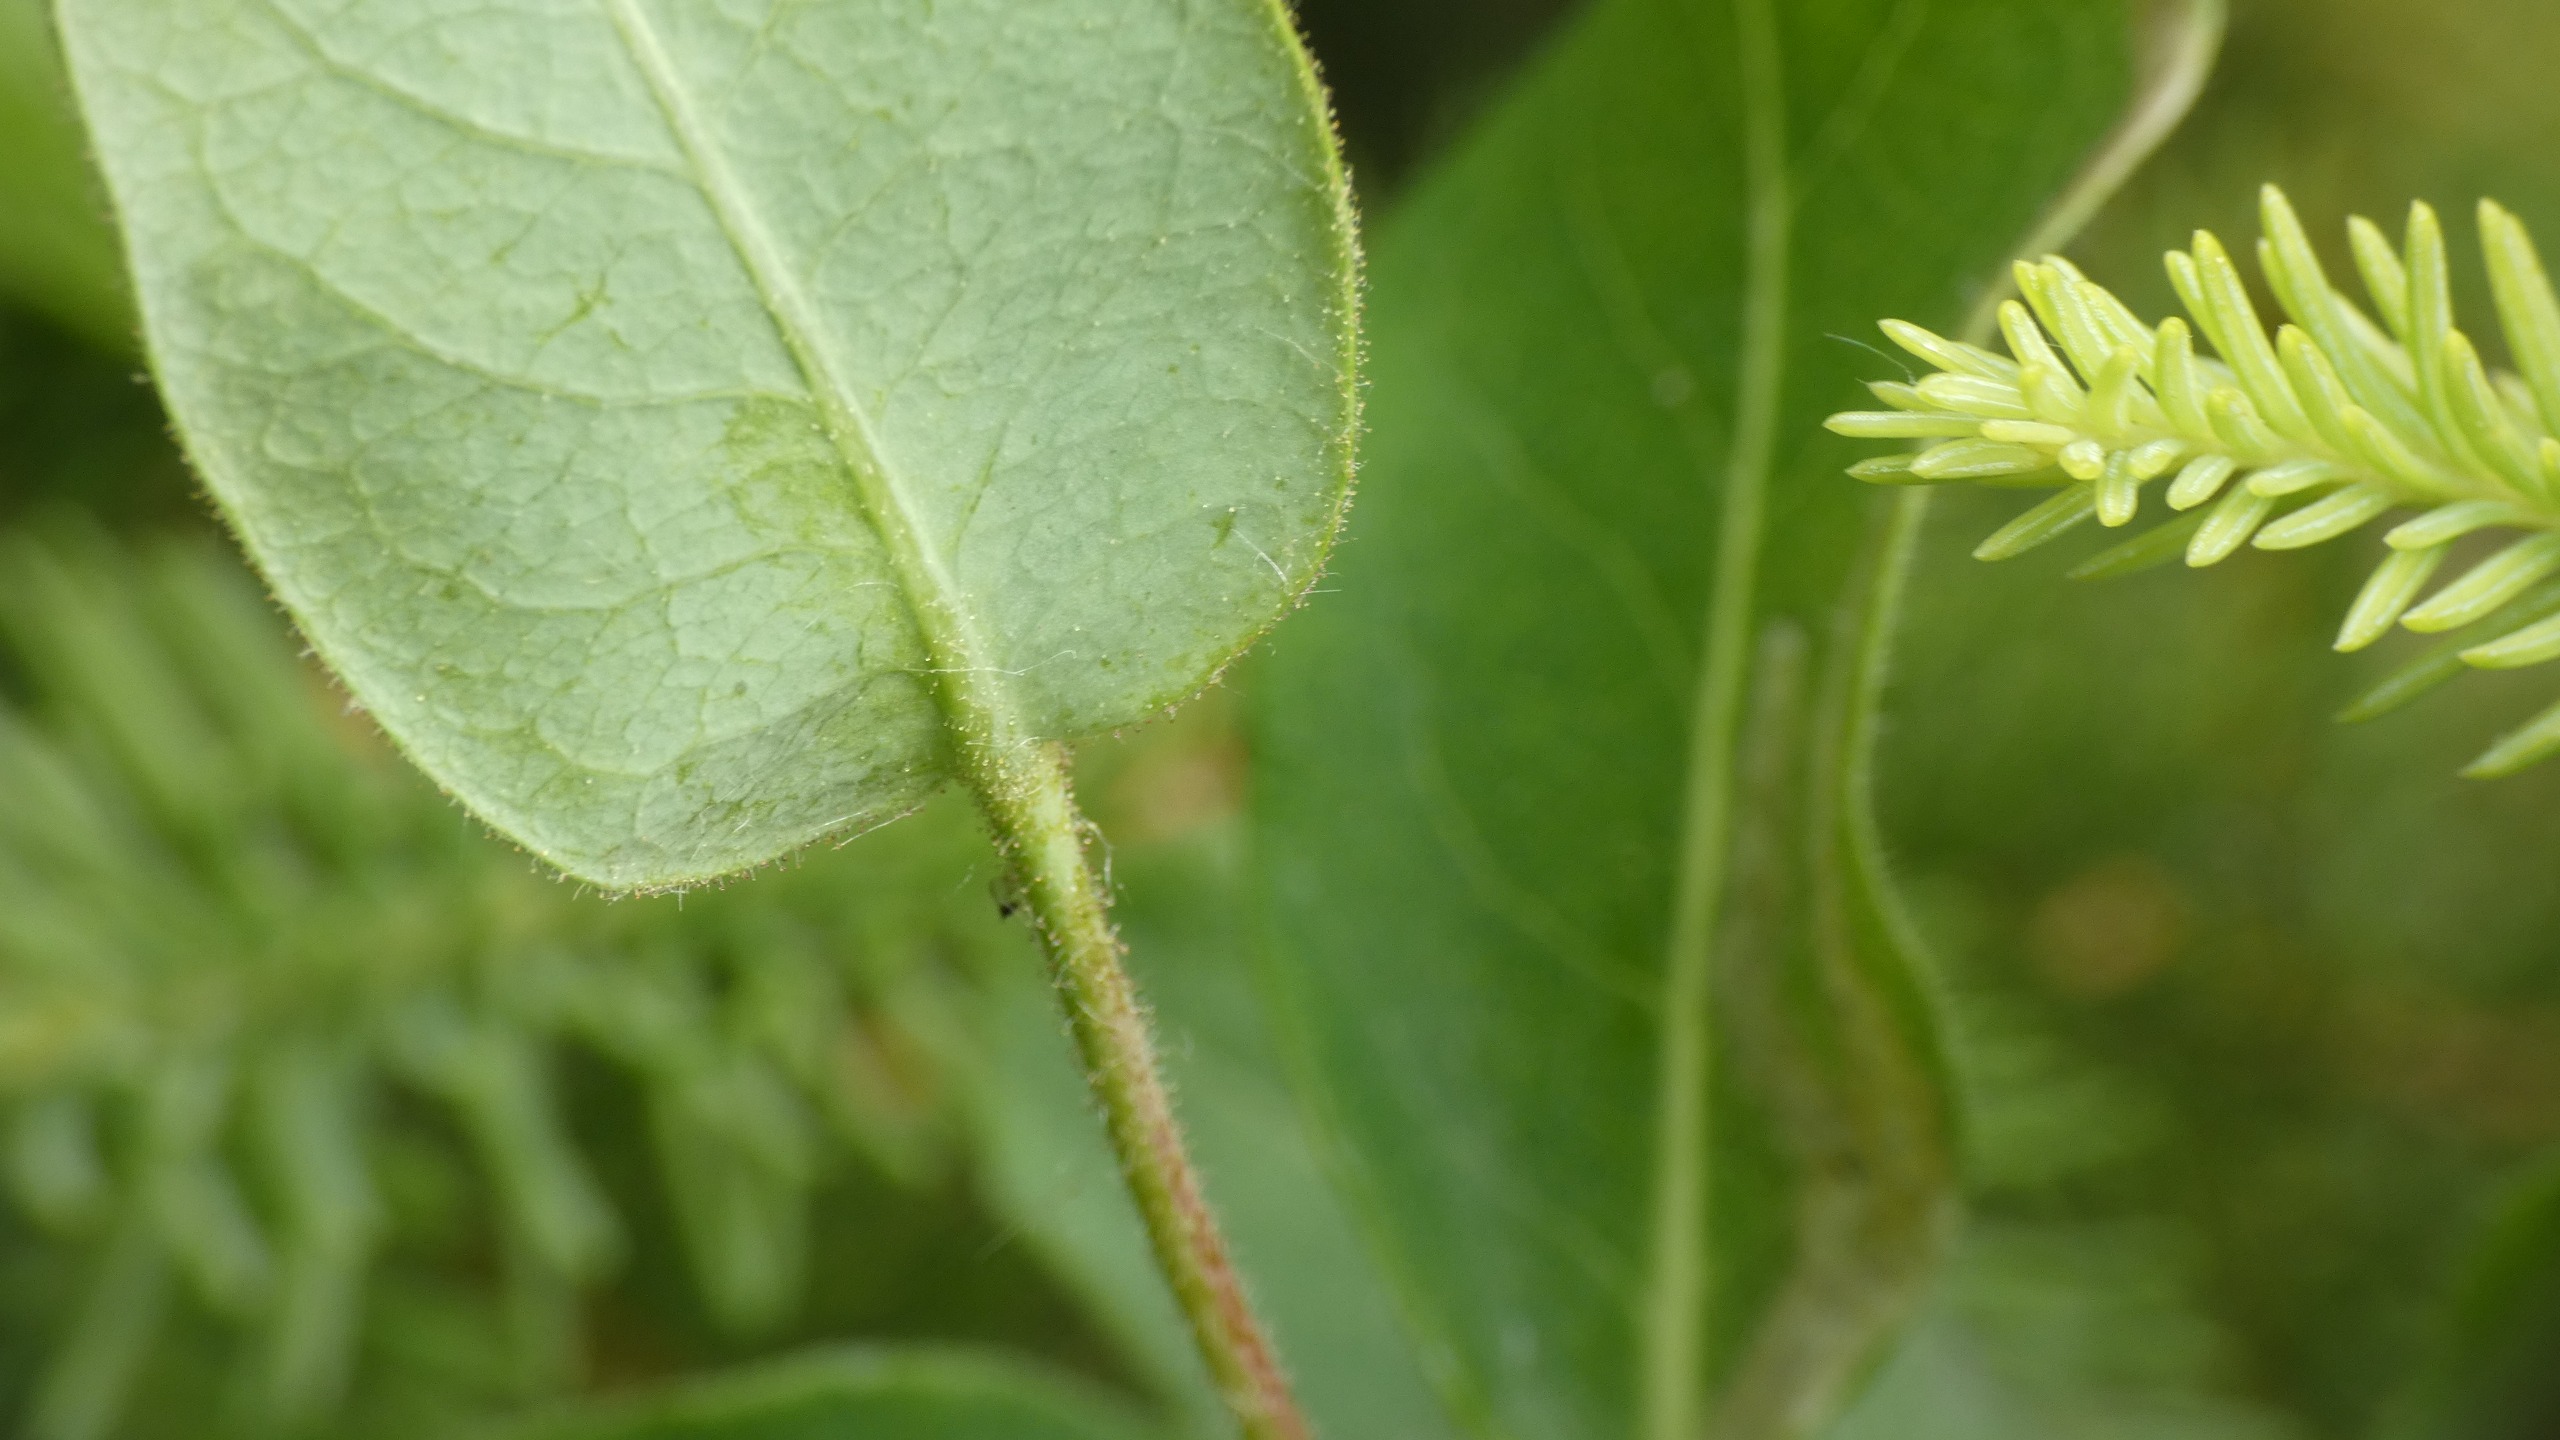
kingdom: Plantae
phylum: Tracheophyta
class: Magnoliopsida
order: Dipsacales
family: Caprifoliaceae
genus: Lonicera
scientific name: Lonicera periclymenum
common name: Almindelig gedeblad
